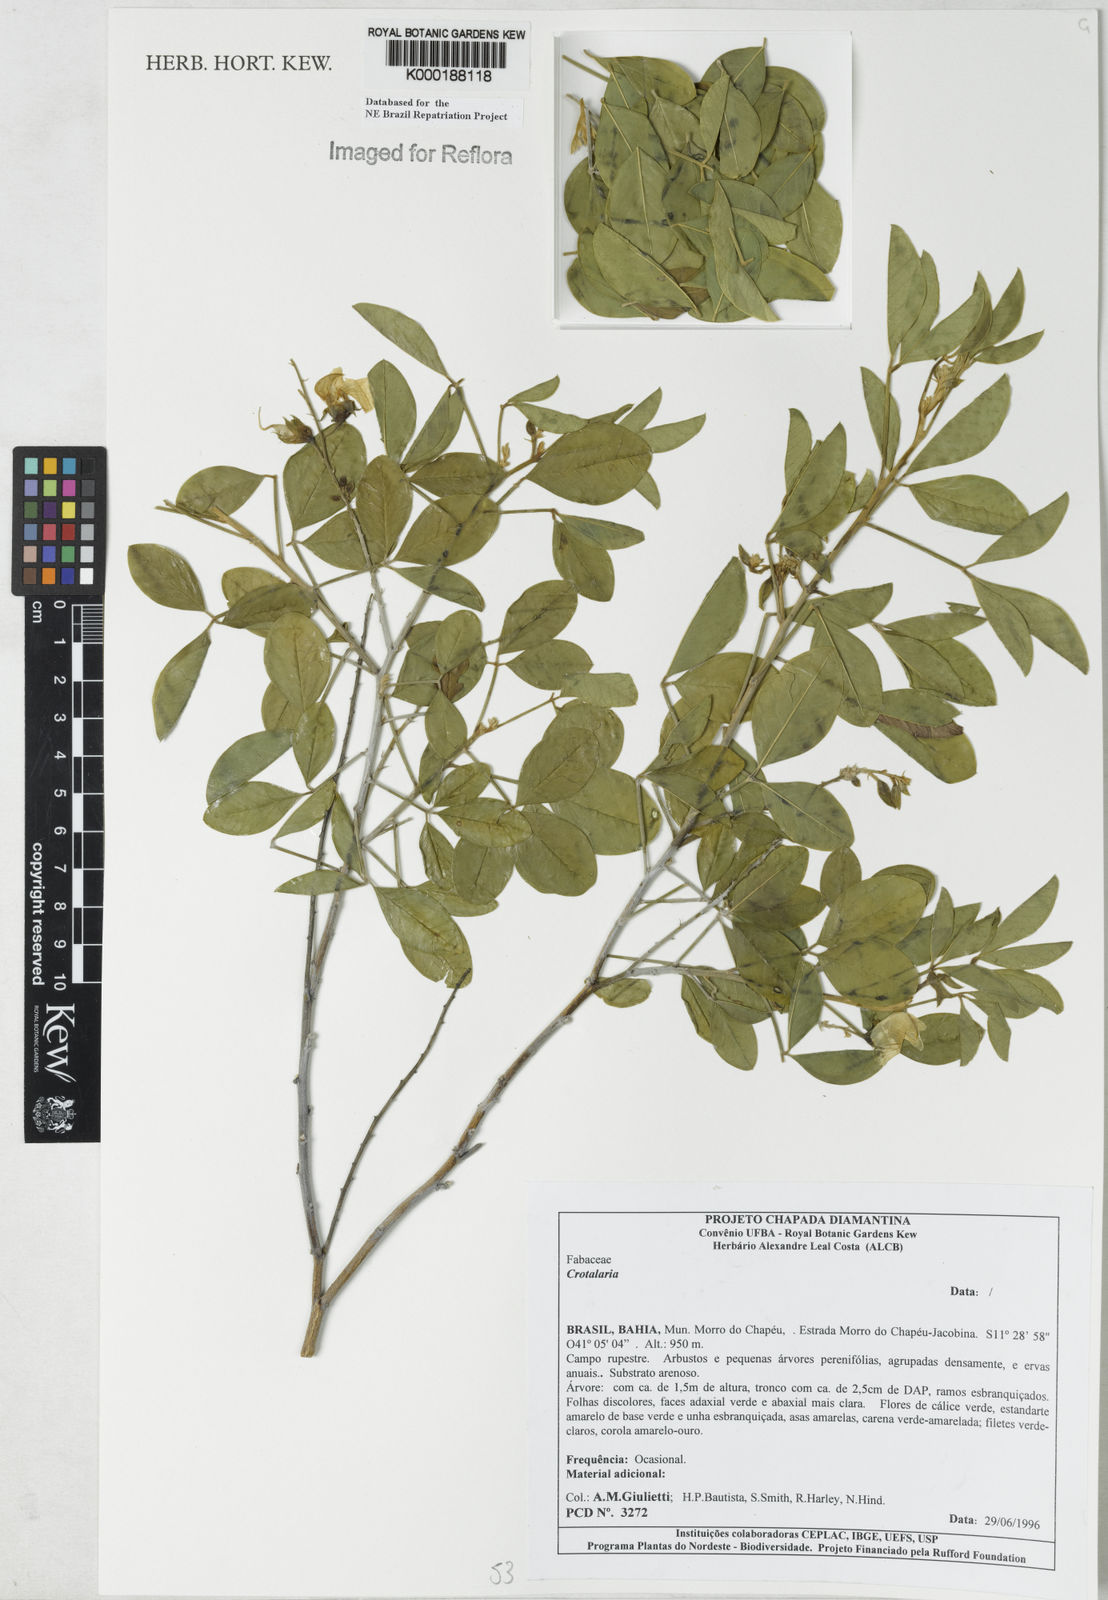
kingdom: Plantae
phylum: Tracheophyta
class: Magnoliopsida
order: Fabales
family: Fabaceae
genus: Crotalaria
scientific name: Crotalaria miottoae
